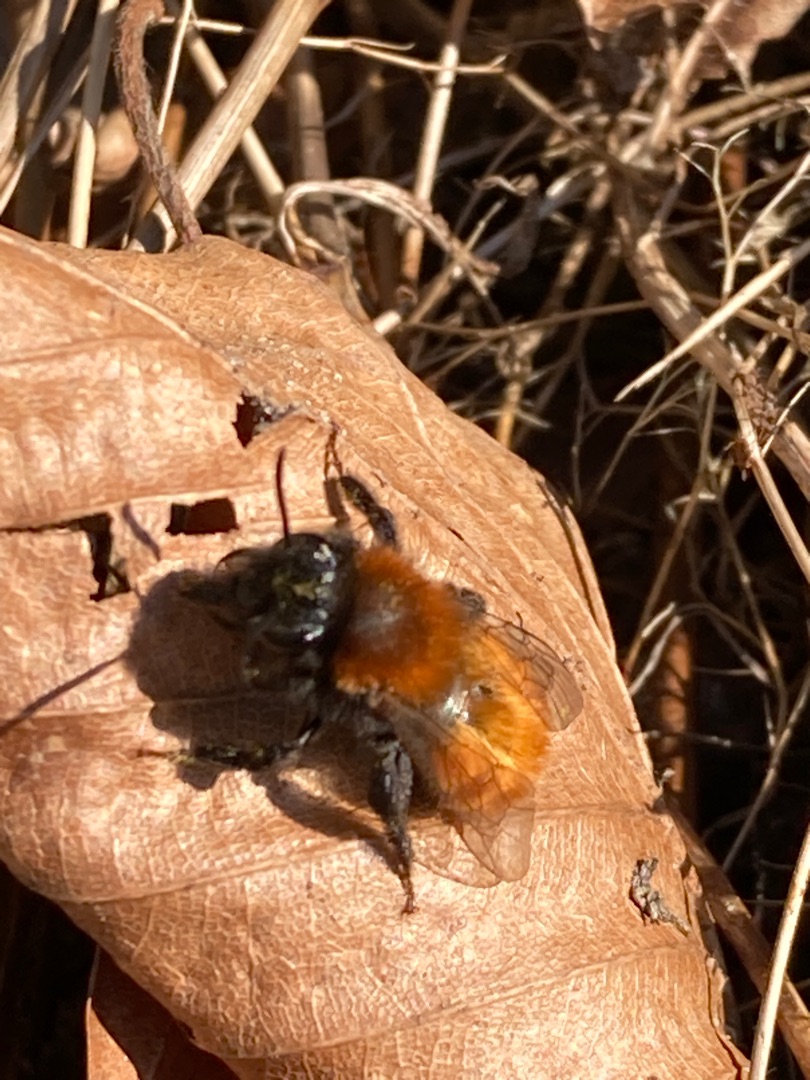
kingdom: Animalia
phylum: Arthropoda
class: Insecta
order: Hymenoptera
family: Andrenidae
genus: Andrena
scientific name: Andrena fulva
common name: Rødpelset jordbi
